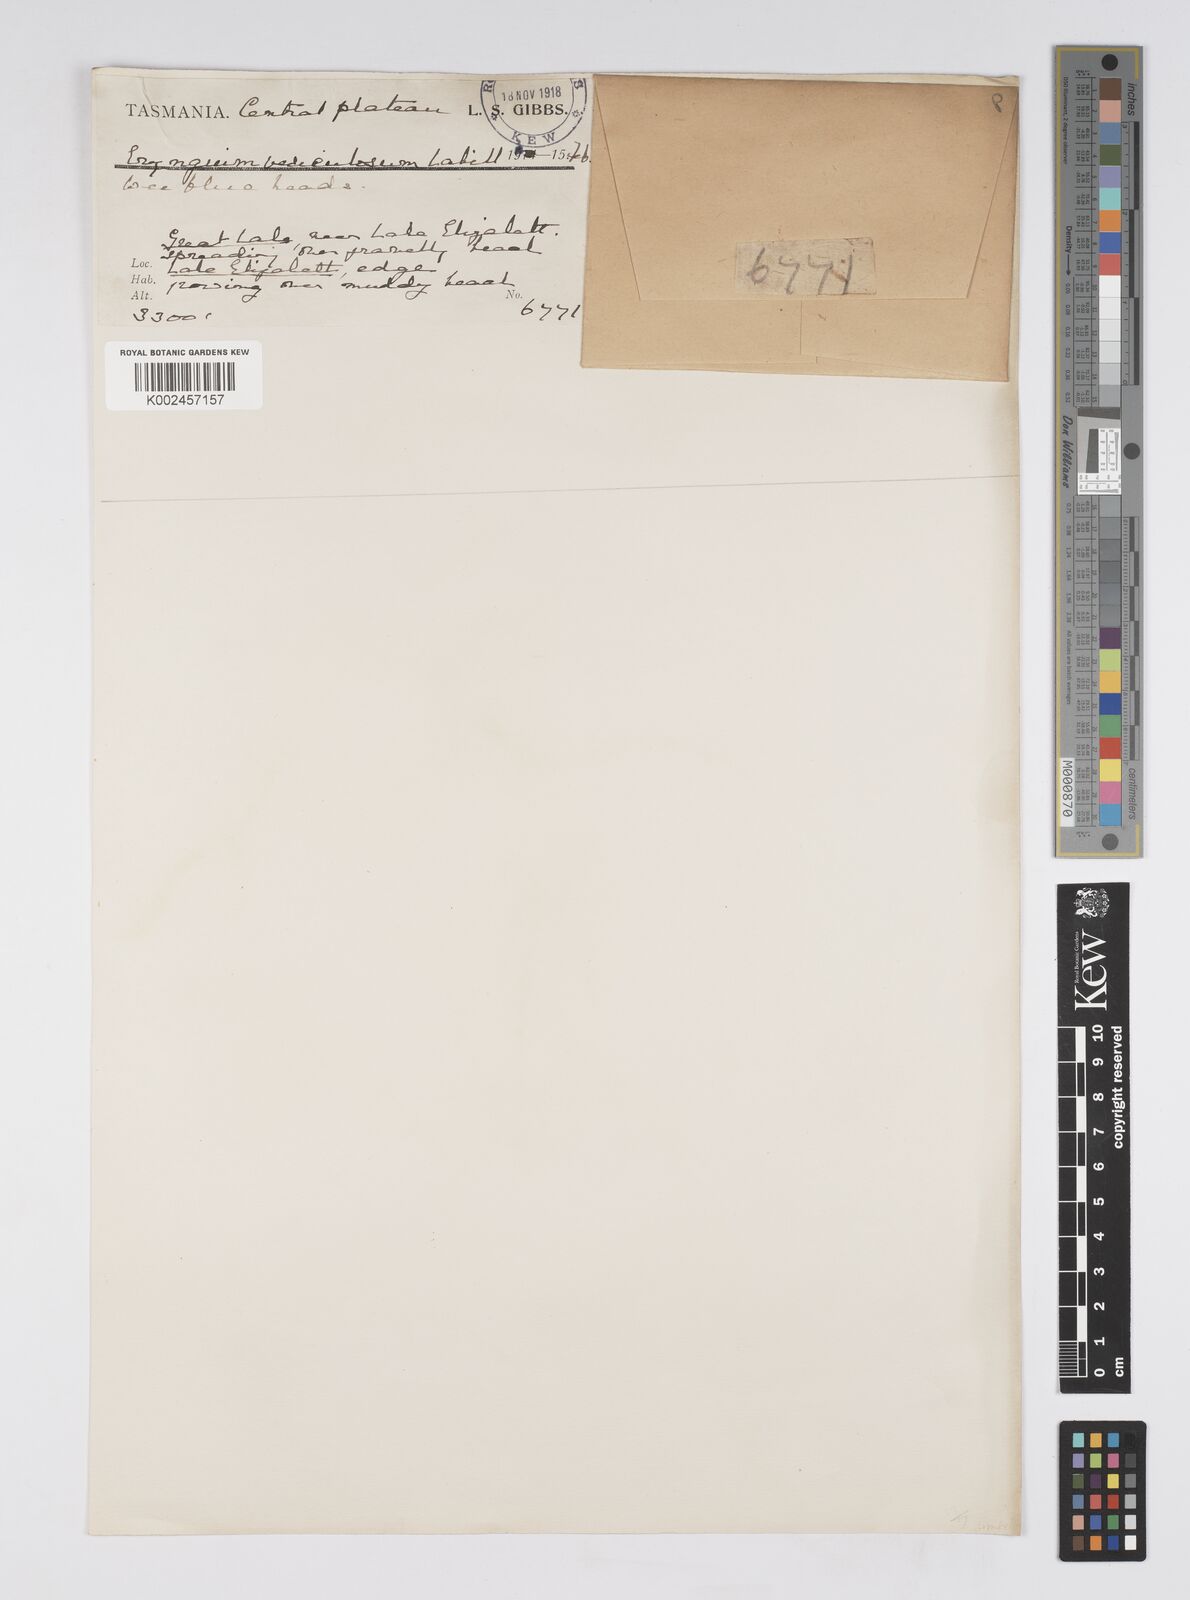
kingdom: Plantae
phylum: Tracheophyta
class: Magnoliopsida
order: Apiales
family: Apiaceae
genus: Eryngium
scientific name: Eryngium vesiculosum
